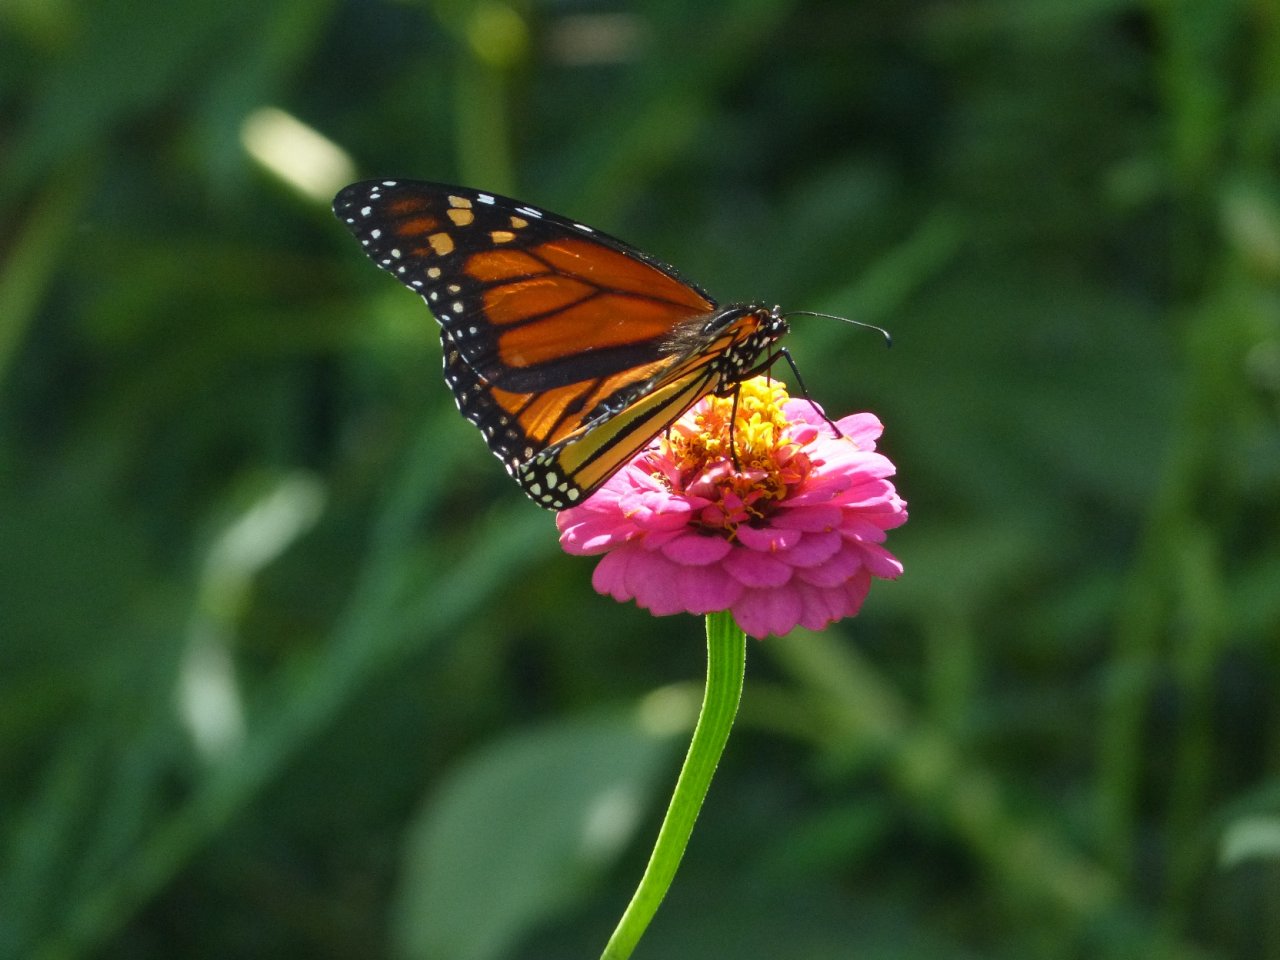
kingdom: Animalia
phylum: Arthropoda
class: Insecta
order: Lepidoptera
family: Nymphalidae
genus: Danaus
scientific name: Danaus plexippus
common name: Monarch
